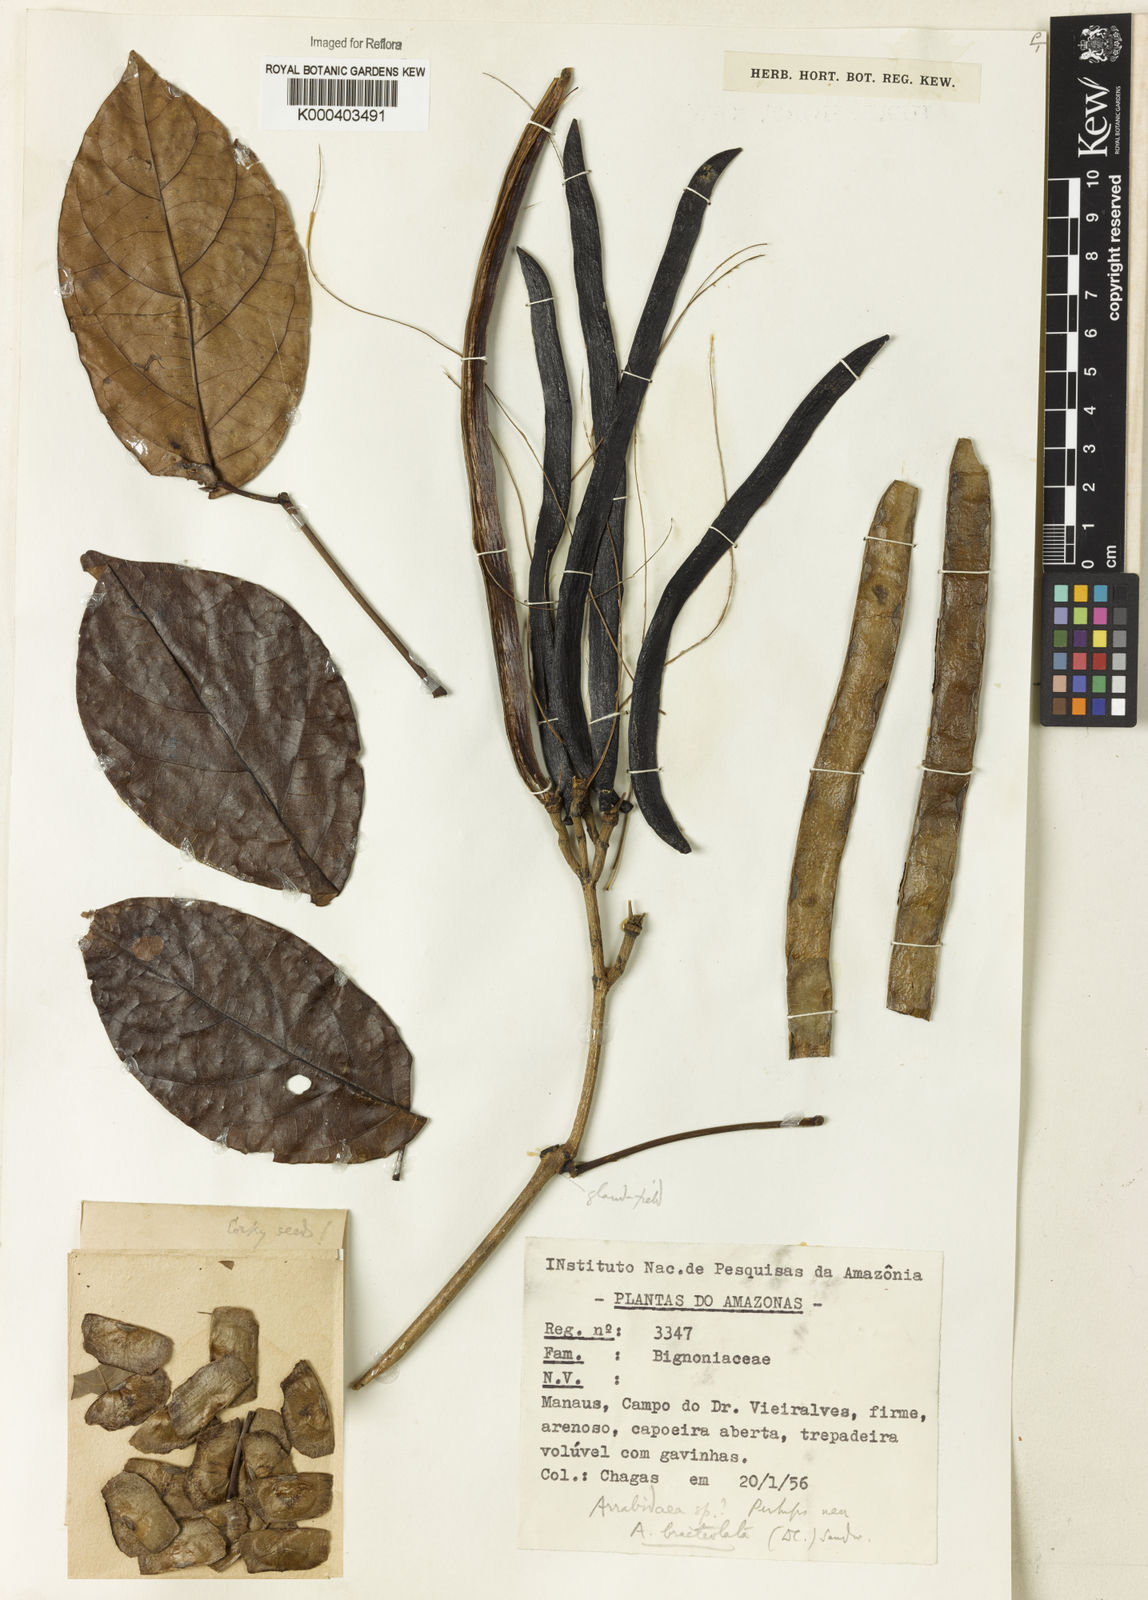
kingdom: Plantae
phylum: Tracheophyta
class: Magnoliopsida
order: Rosales
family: Rhamnaceae
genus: Arrabidaea
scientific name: Arrabidaea
